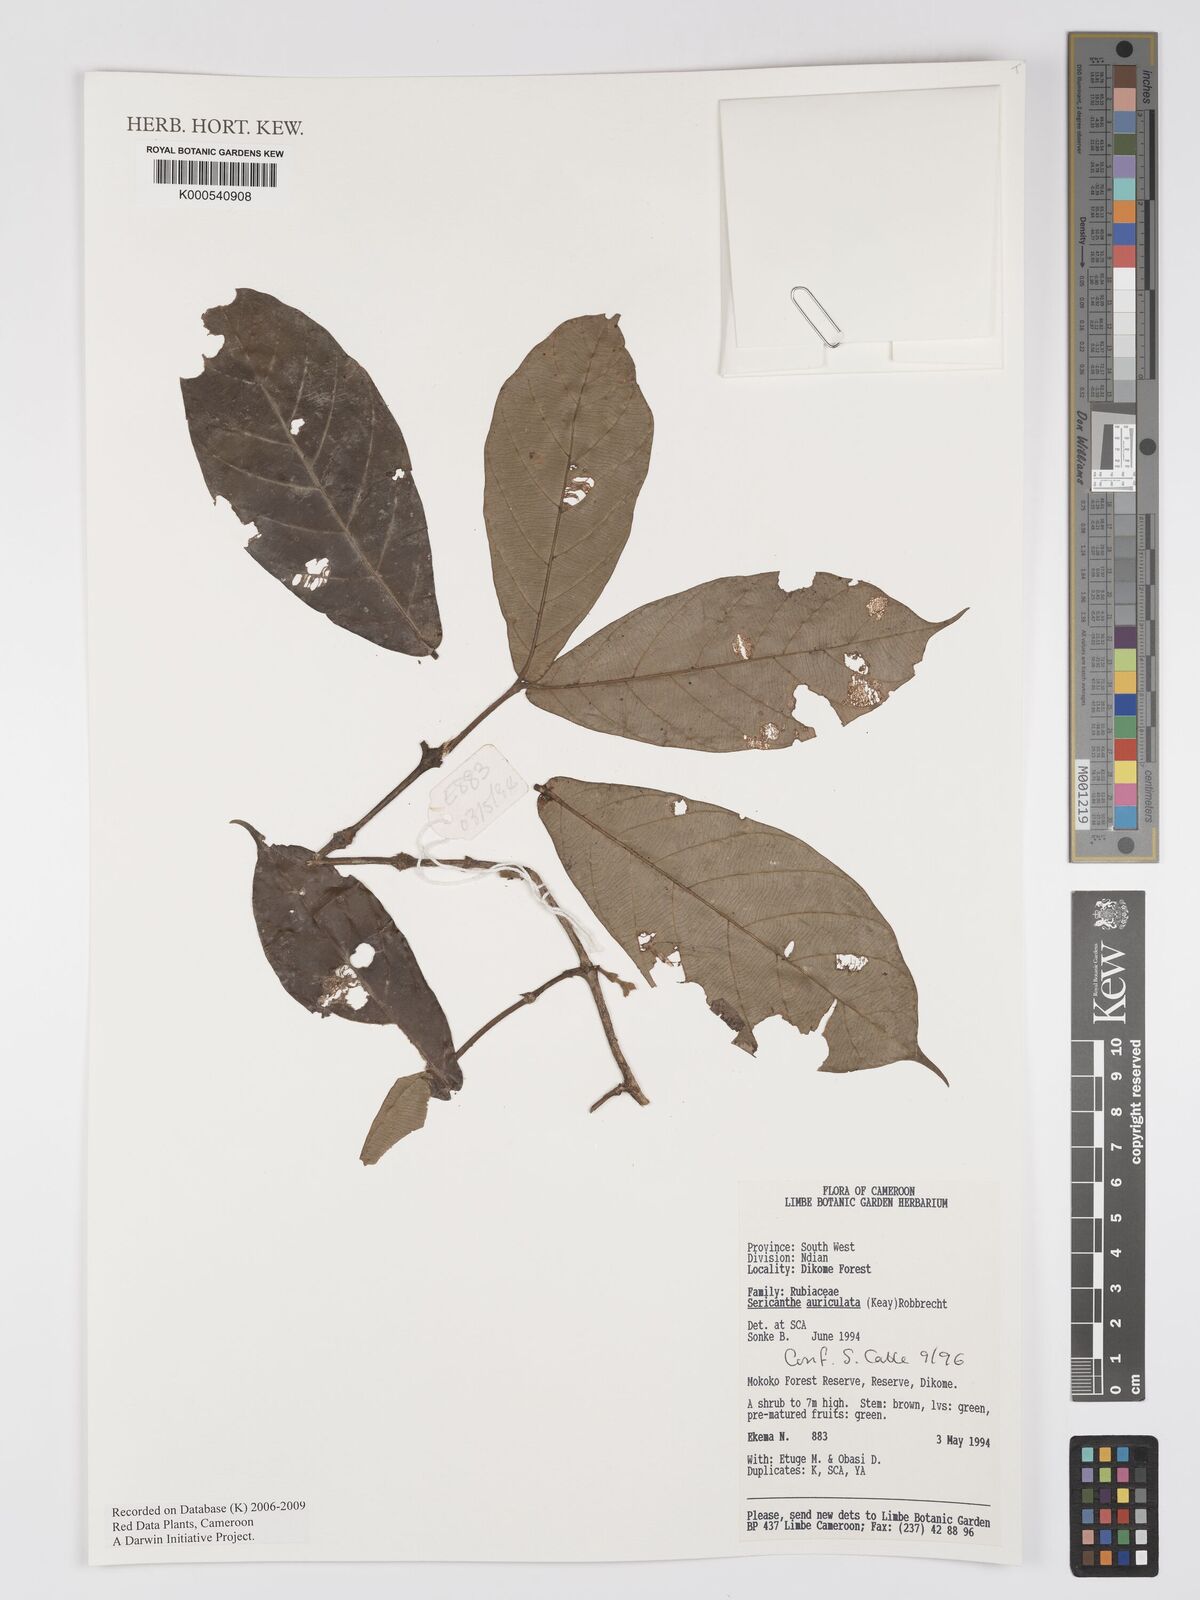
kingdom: Plantae
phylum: Tracheophyta
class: Magnoliopsida
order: Gentianales
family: Rubiaceae
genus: Sericanthe
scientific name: Sericanthe auriculata
